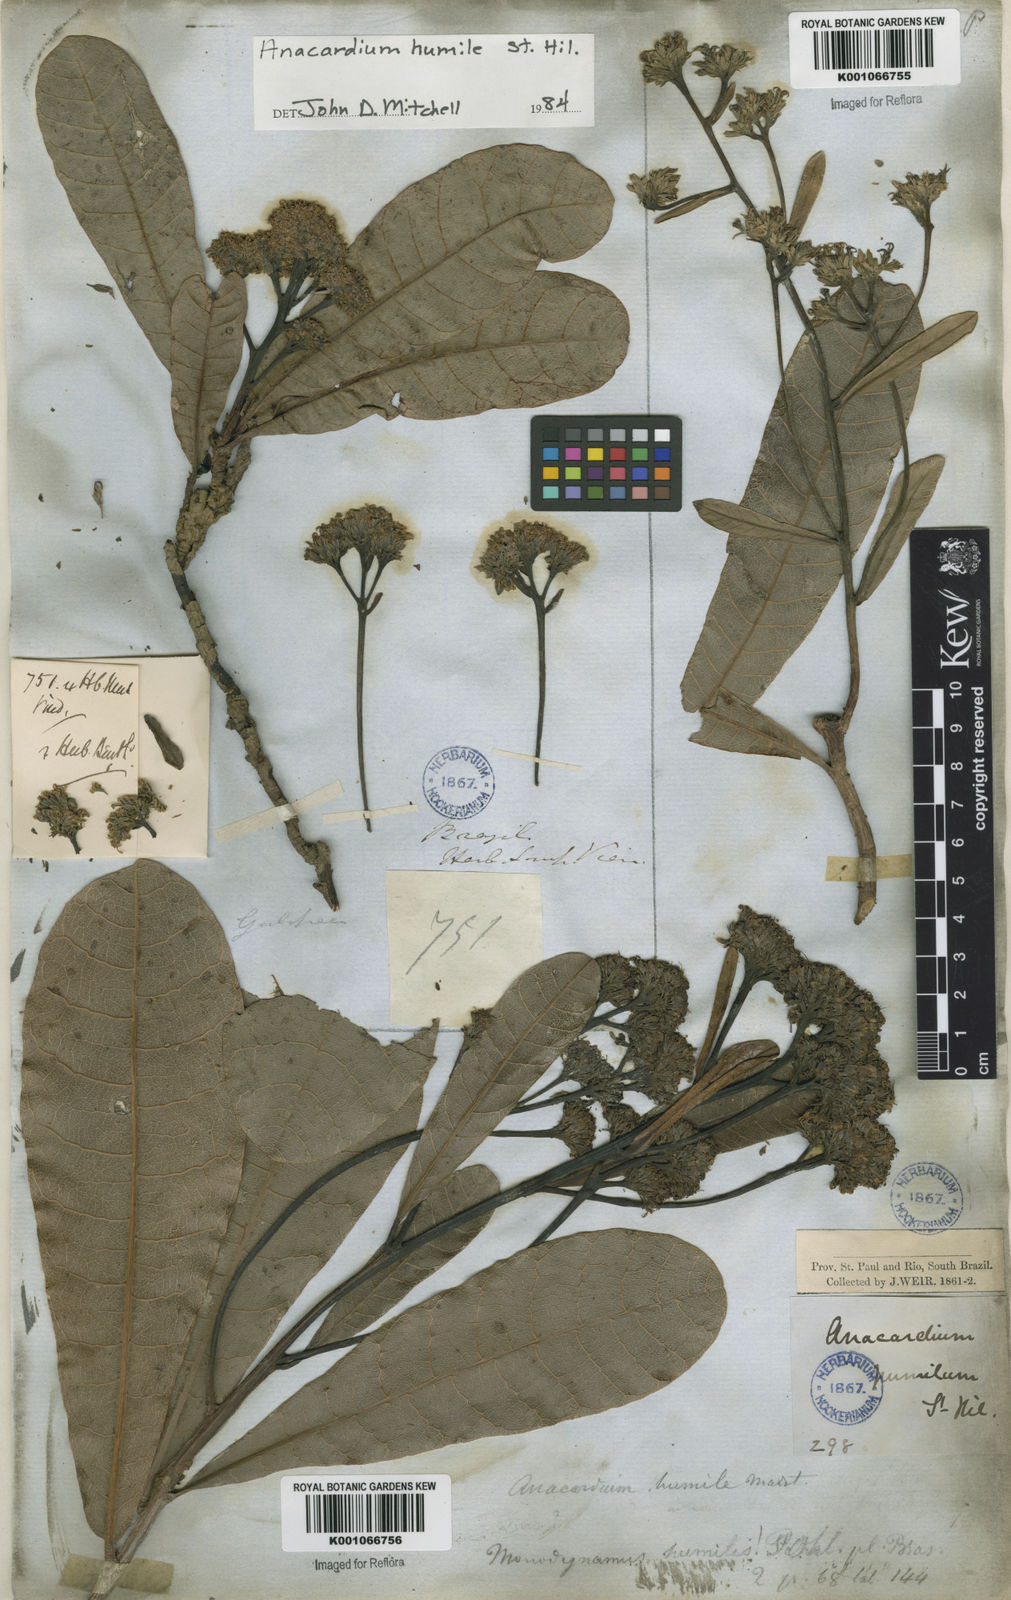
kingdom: Plantae
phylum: Tracheophyta
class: Magnoliopsida
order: Sapindales
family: Anacardiaceae
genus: Anacardium
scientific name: Anacardium humile
